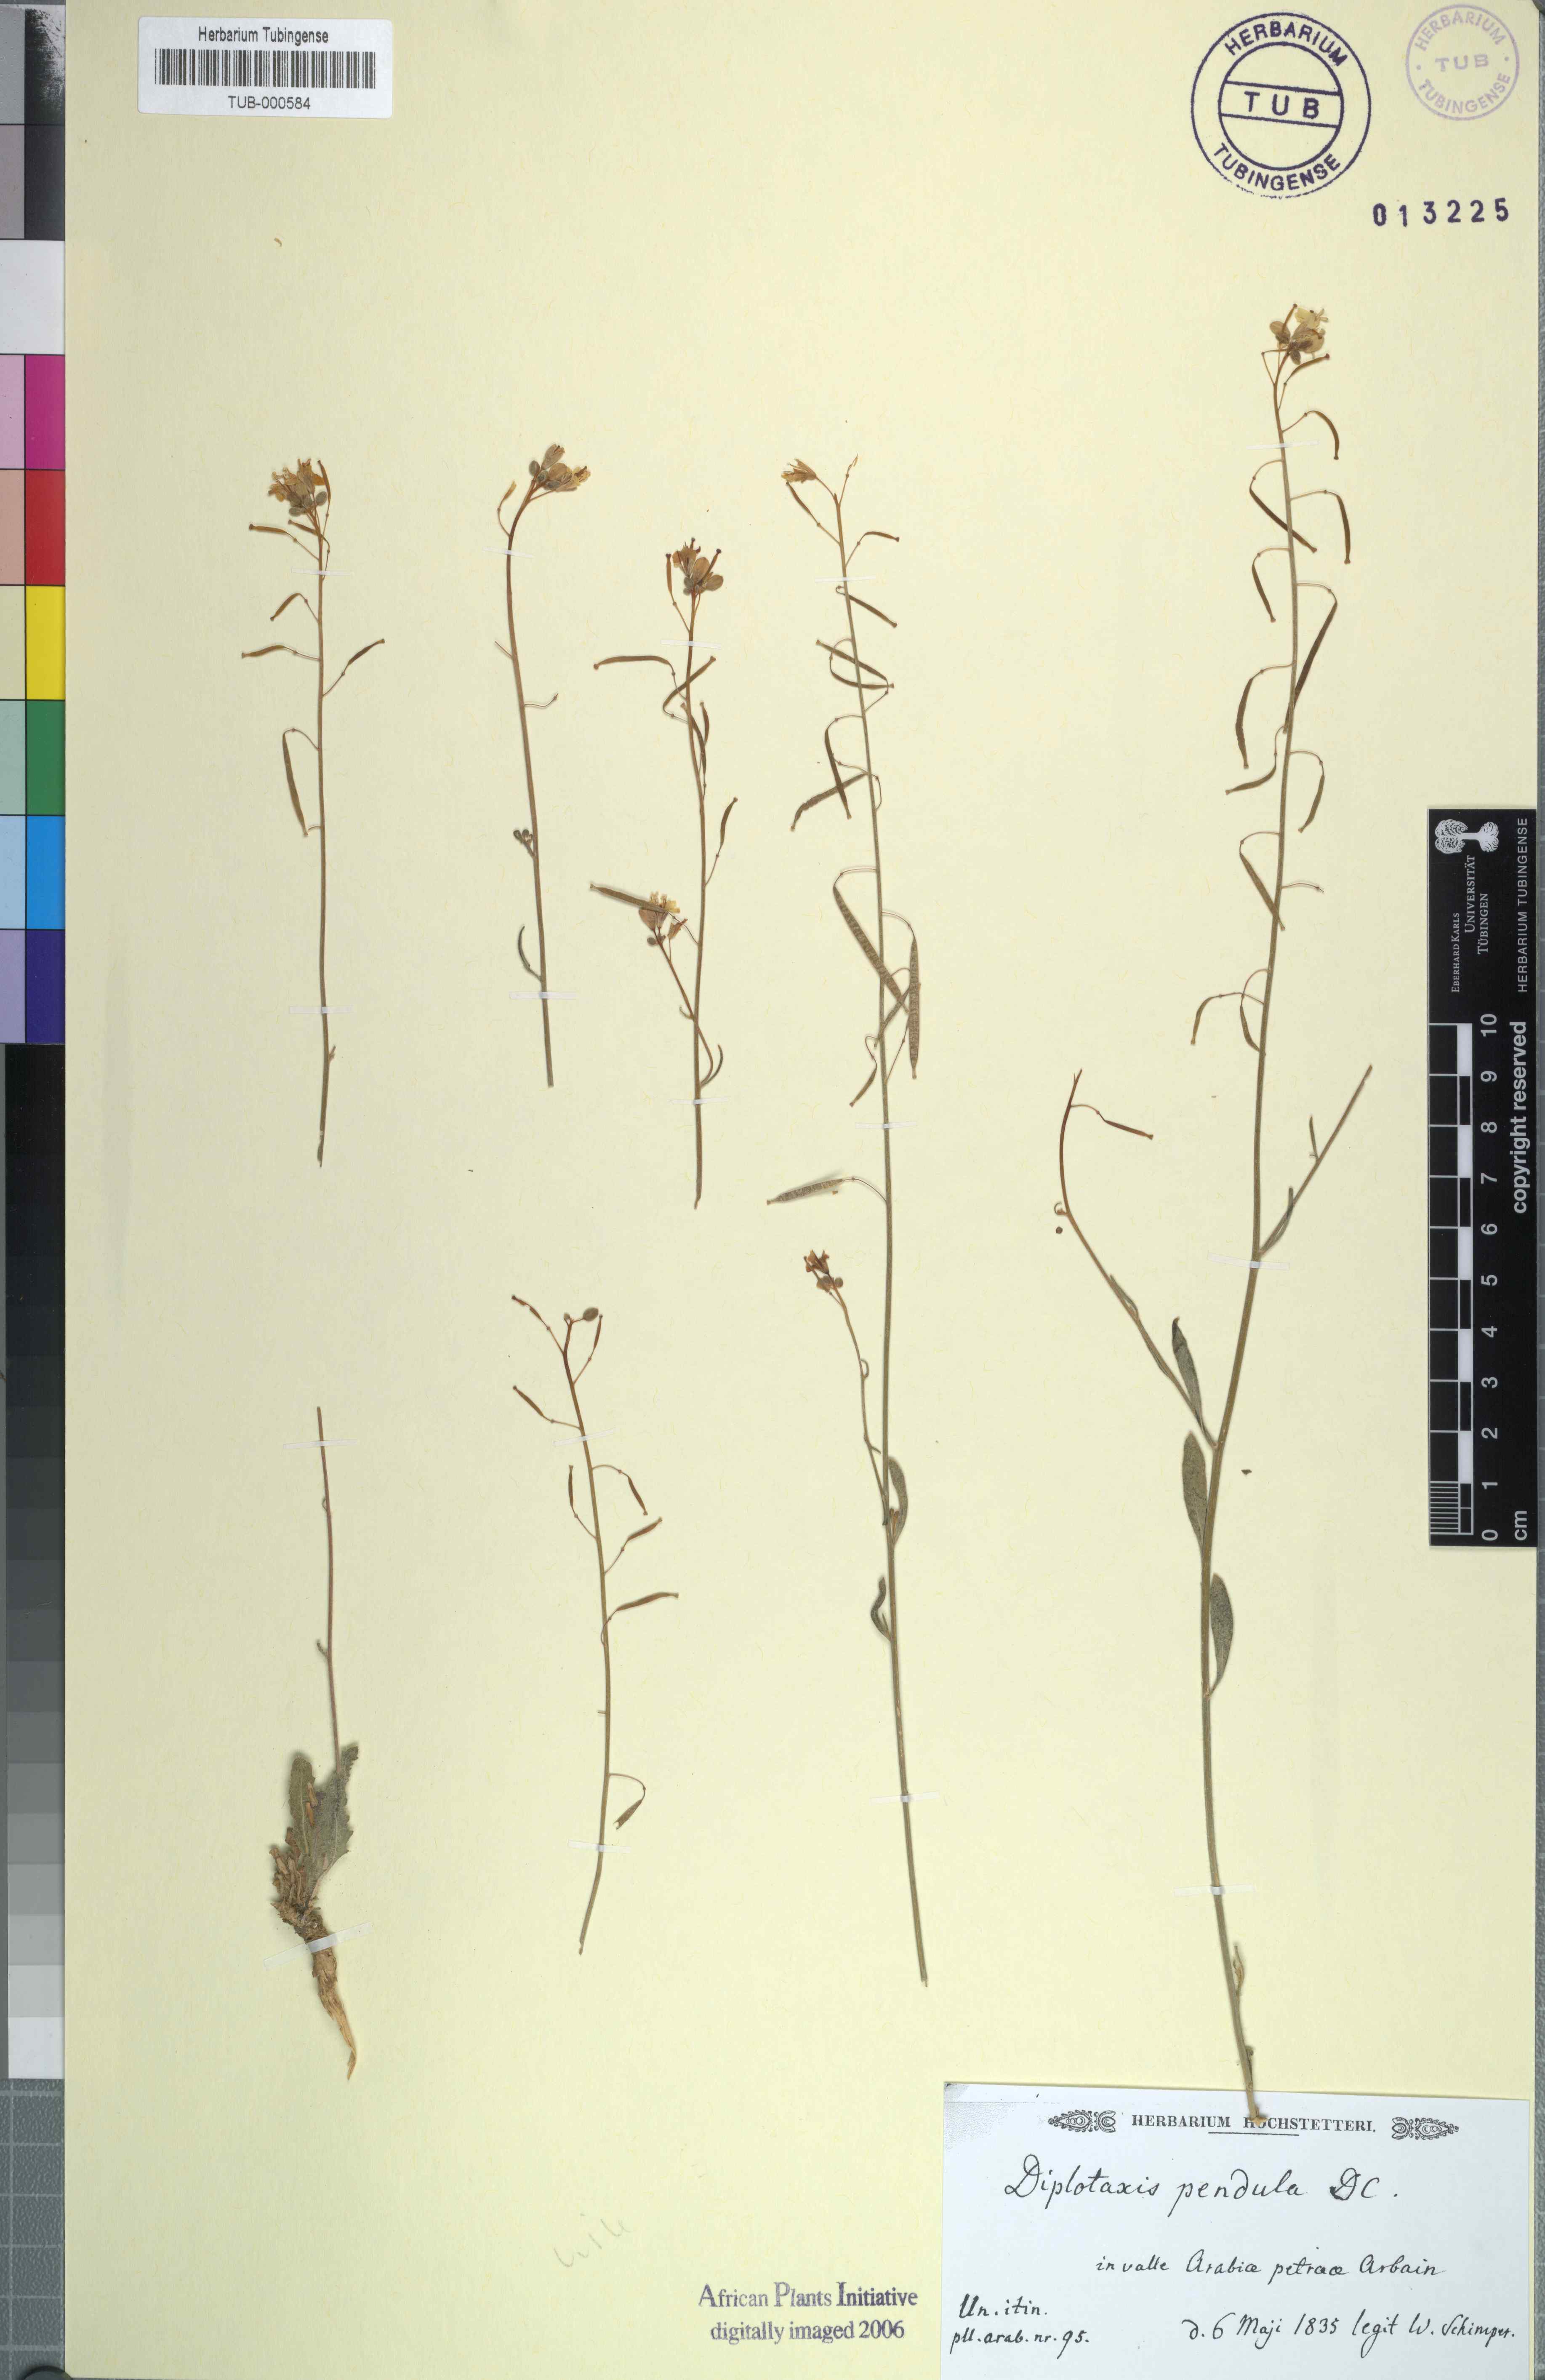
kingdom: Plantae
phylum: Tracheophyta
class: Magnoliopsida
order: Brassicales
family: Brassicaceae
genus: Diplotaxis
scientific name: Diplotaxis harra
